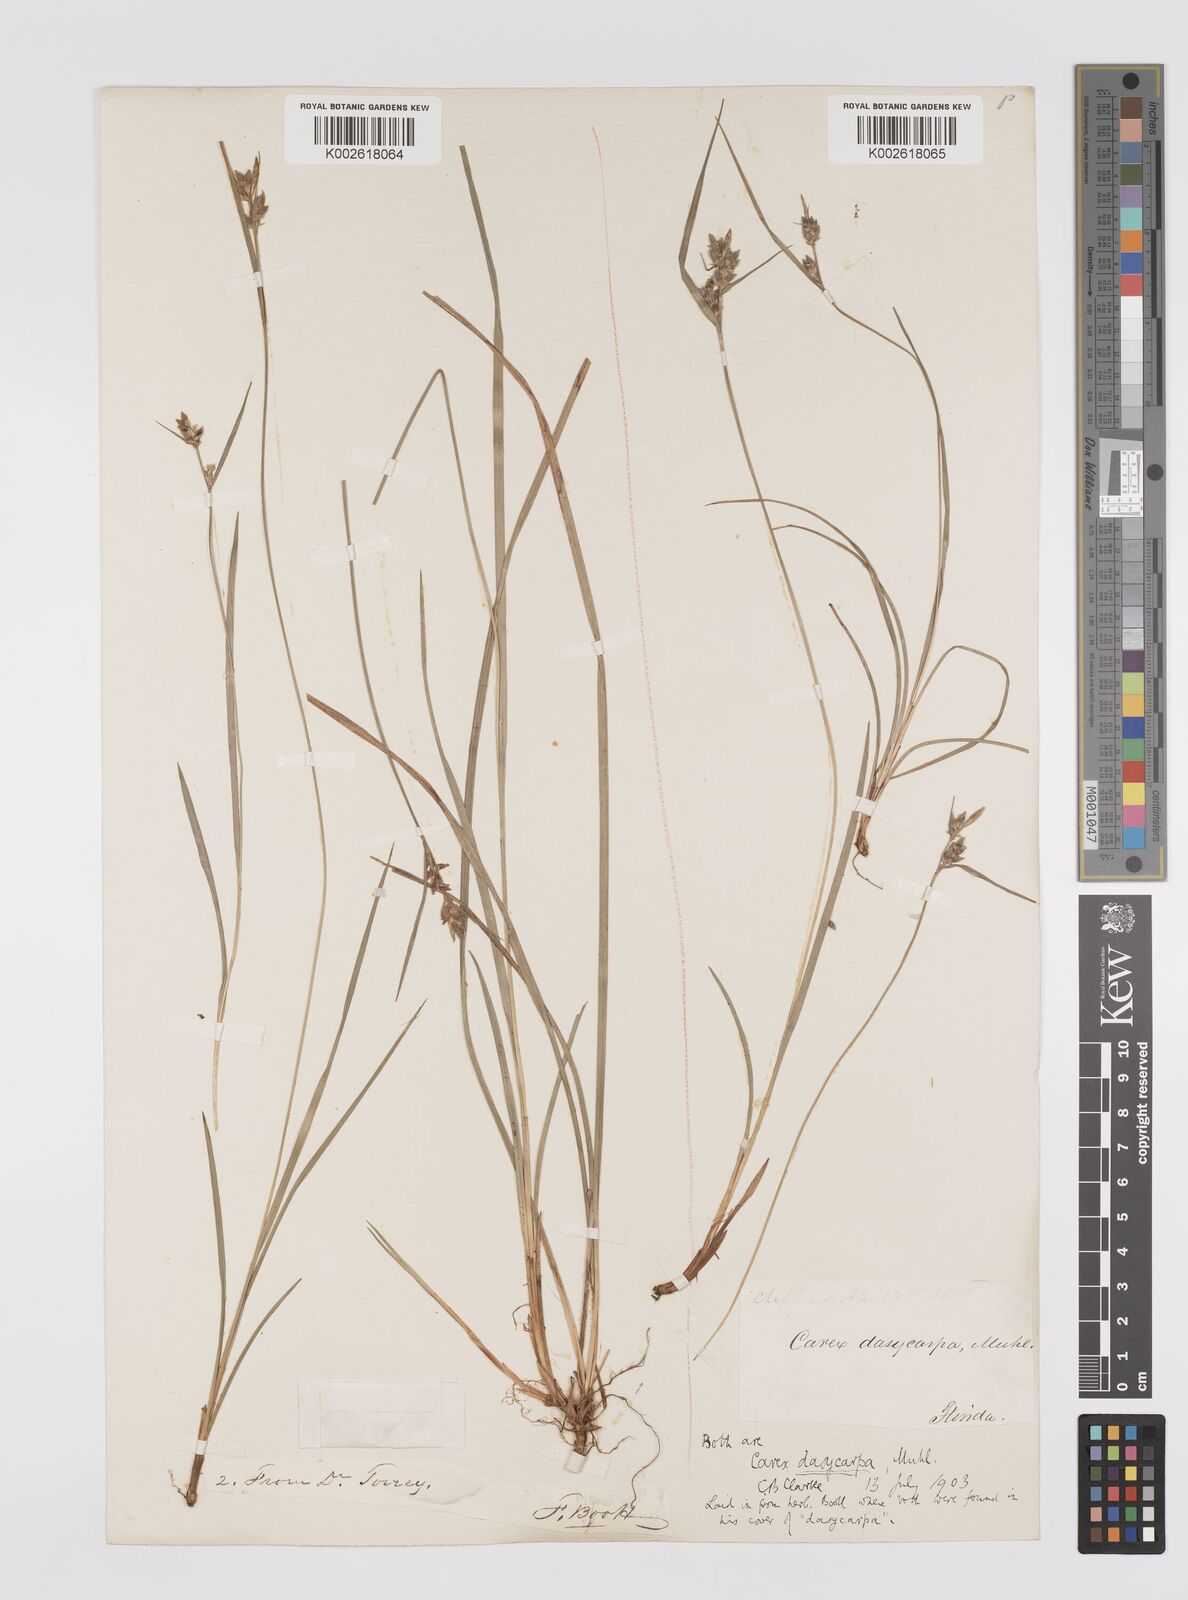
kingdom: Plantae
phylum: Tracheophyta
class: Liliopsida
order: Poales
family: Cyperaceae
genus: Carex
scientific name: Carex dasycarpa
